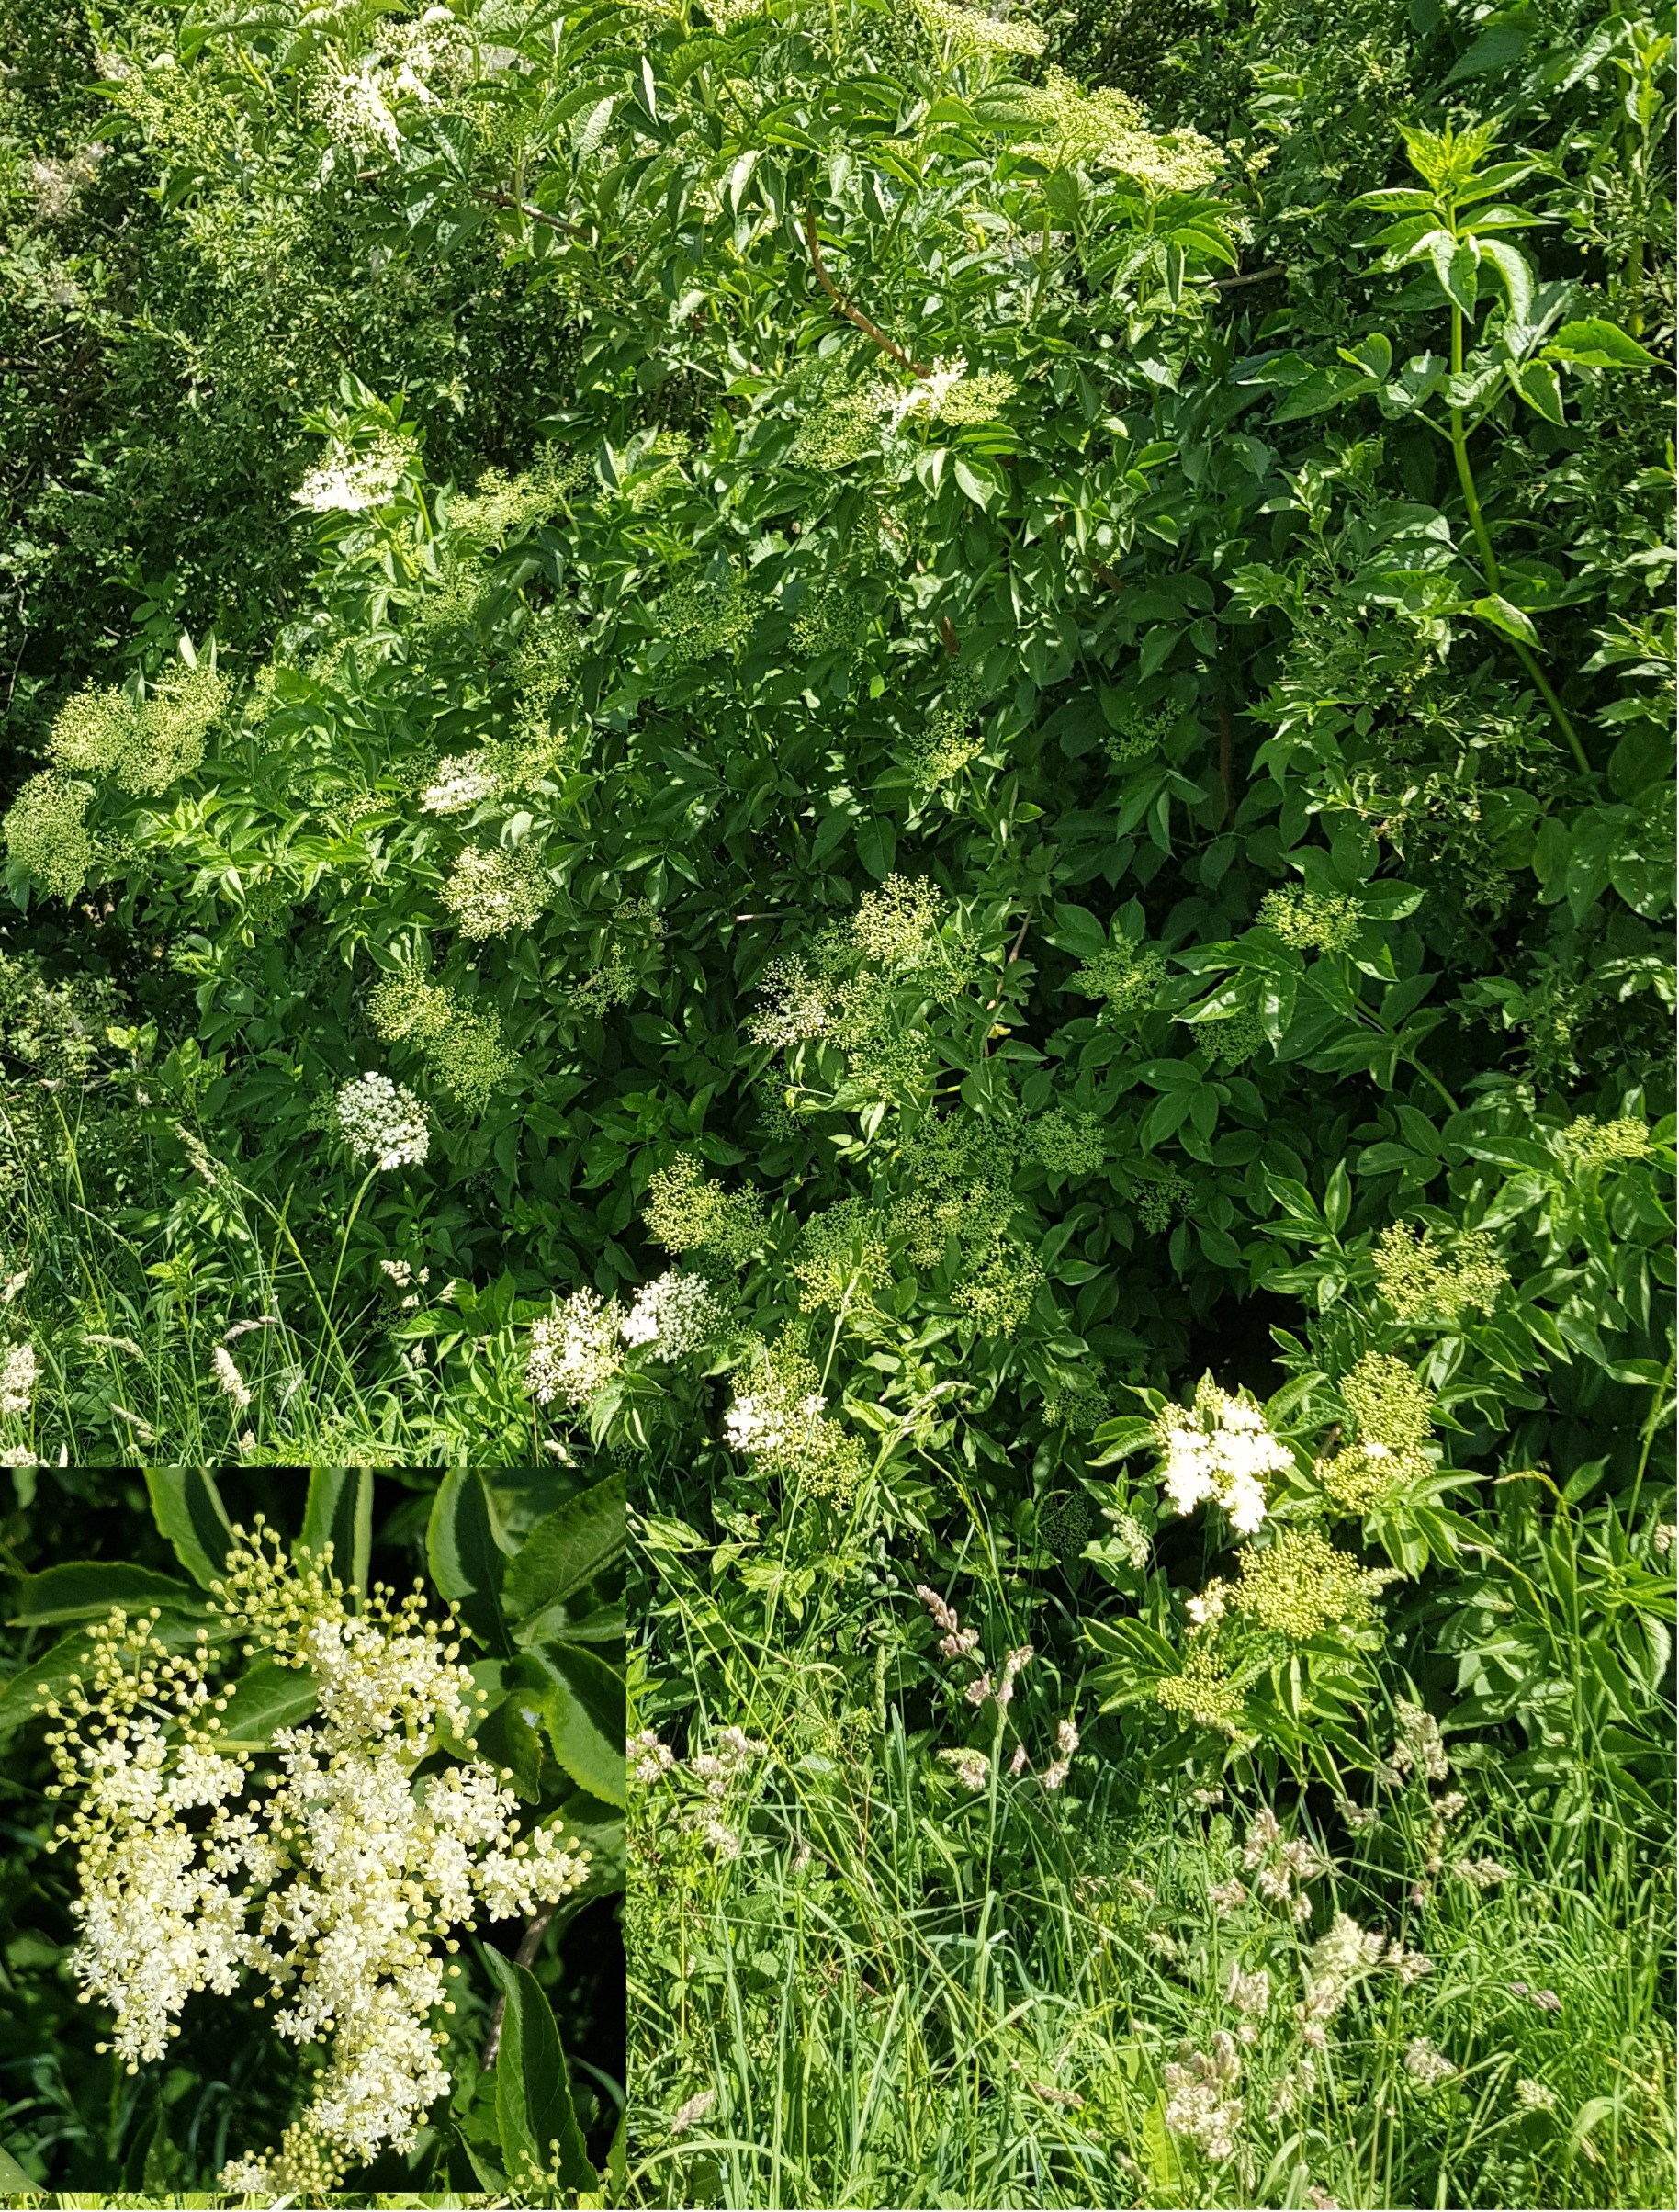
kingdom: Plantae
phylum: Tracheophyta
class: Magnoliopsida
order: Dipsacales
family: Viburnaceae
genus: Sambucus
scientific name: Sambucus nigra
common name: Almindelig hyld
